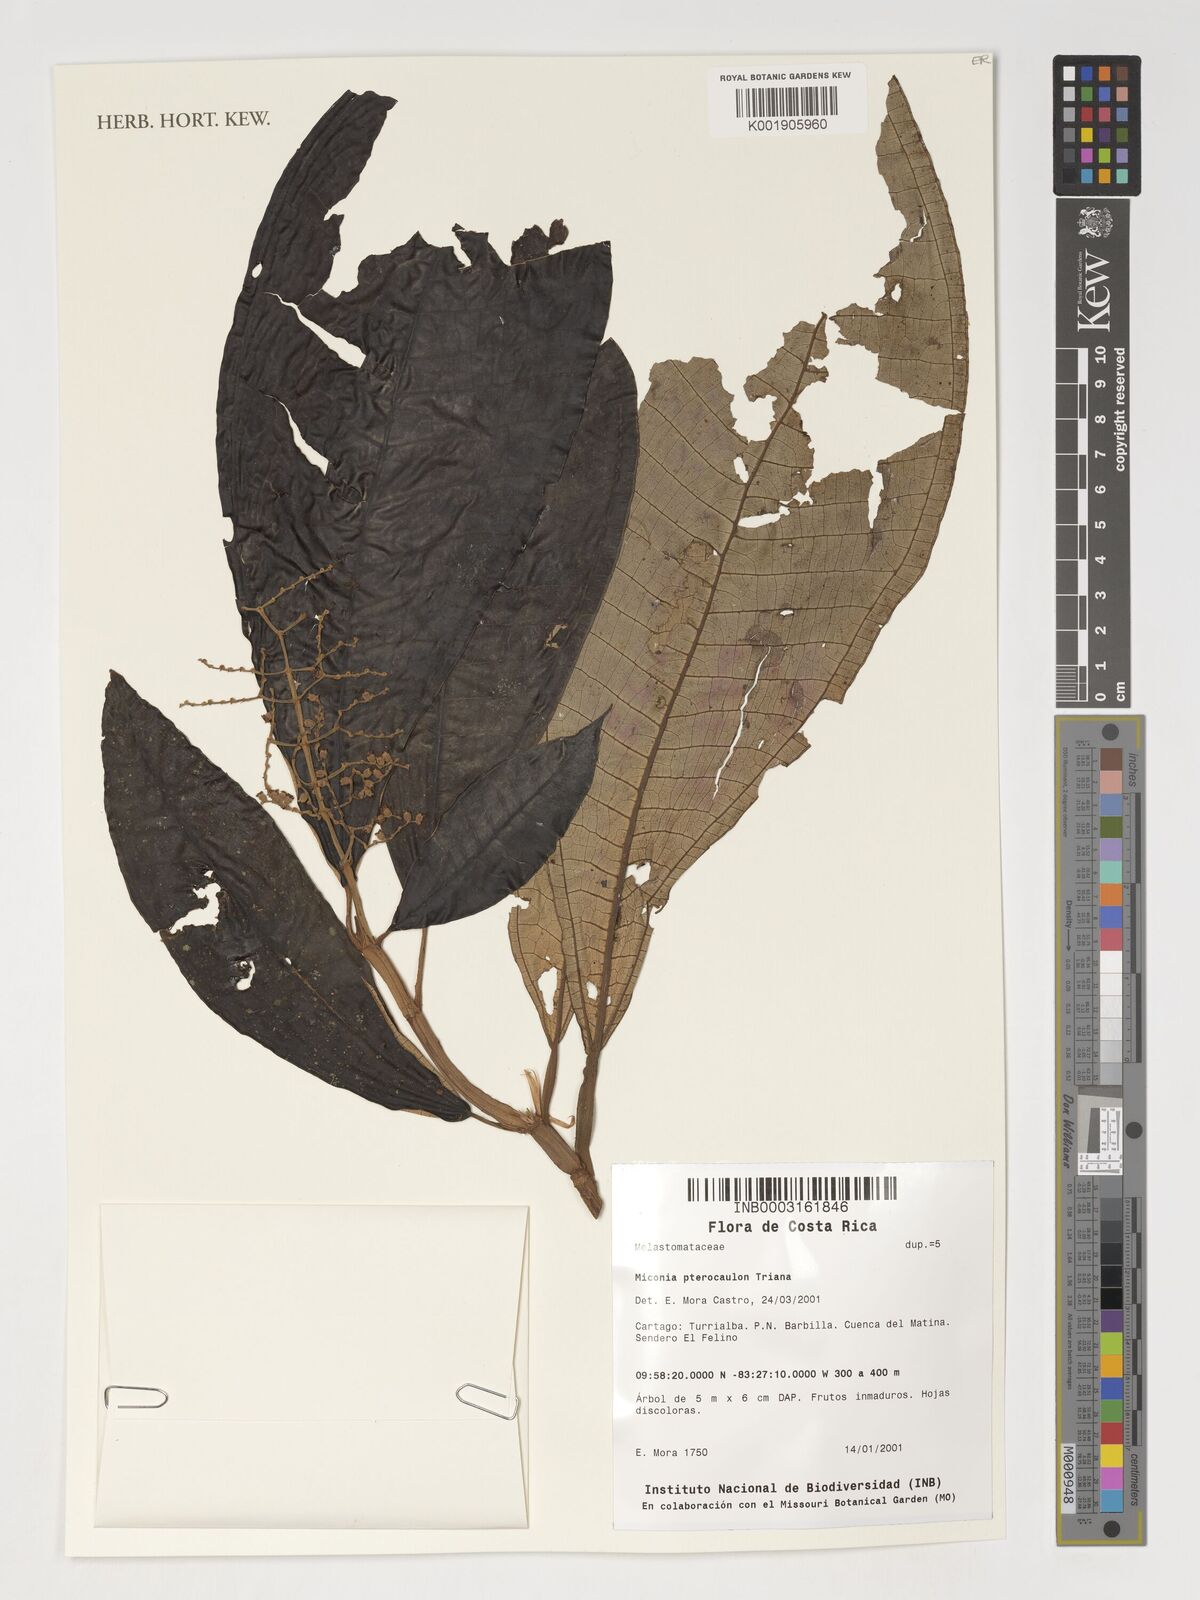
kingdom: Plantae
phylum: Tracheophyta
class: Magnoliopsida
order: Myrtales
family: Melastomataceae
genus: Miconia
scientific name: Miconia pterocaulon
